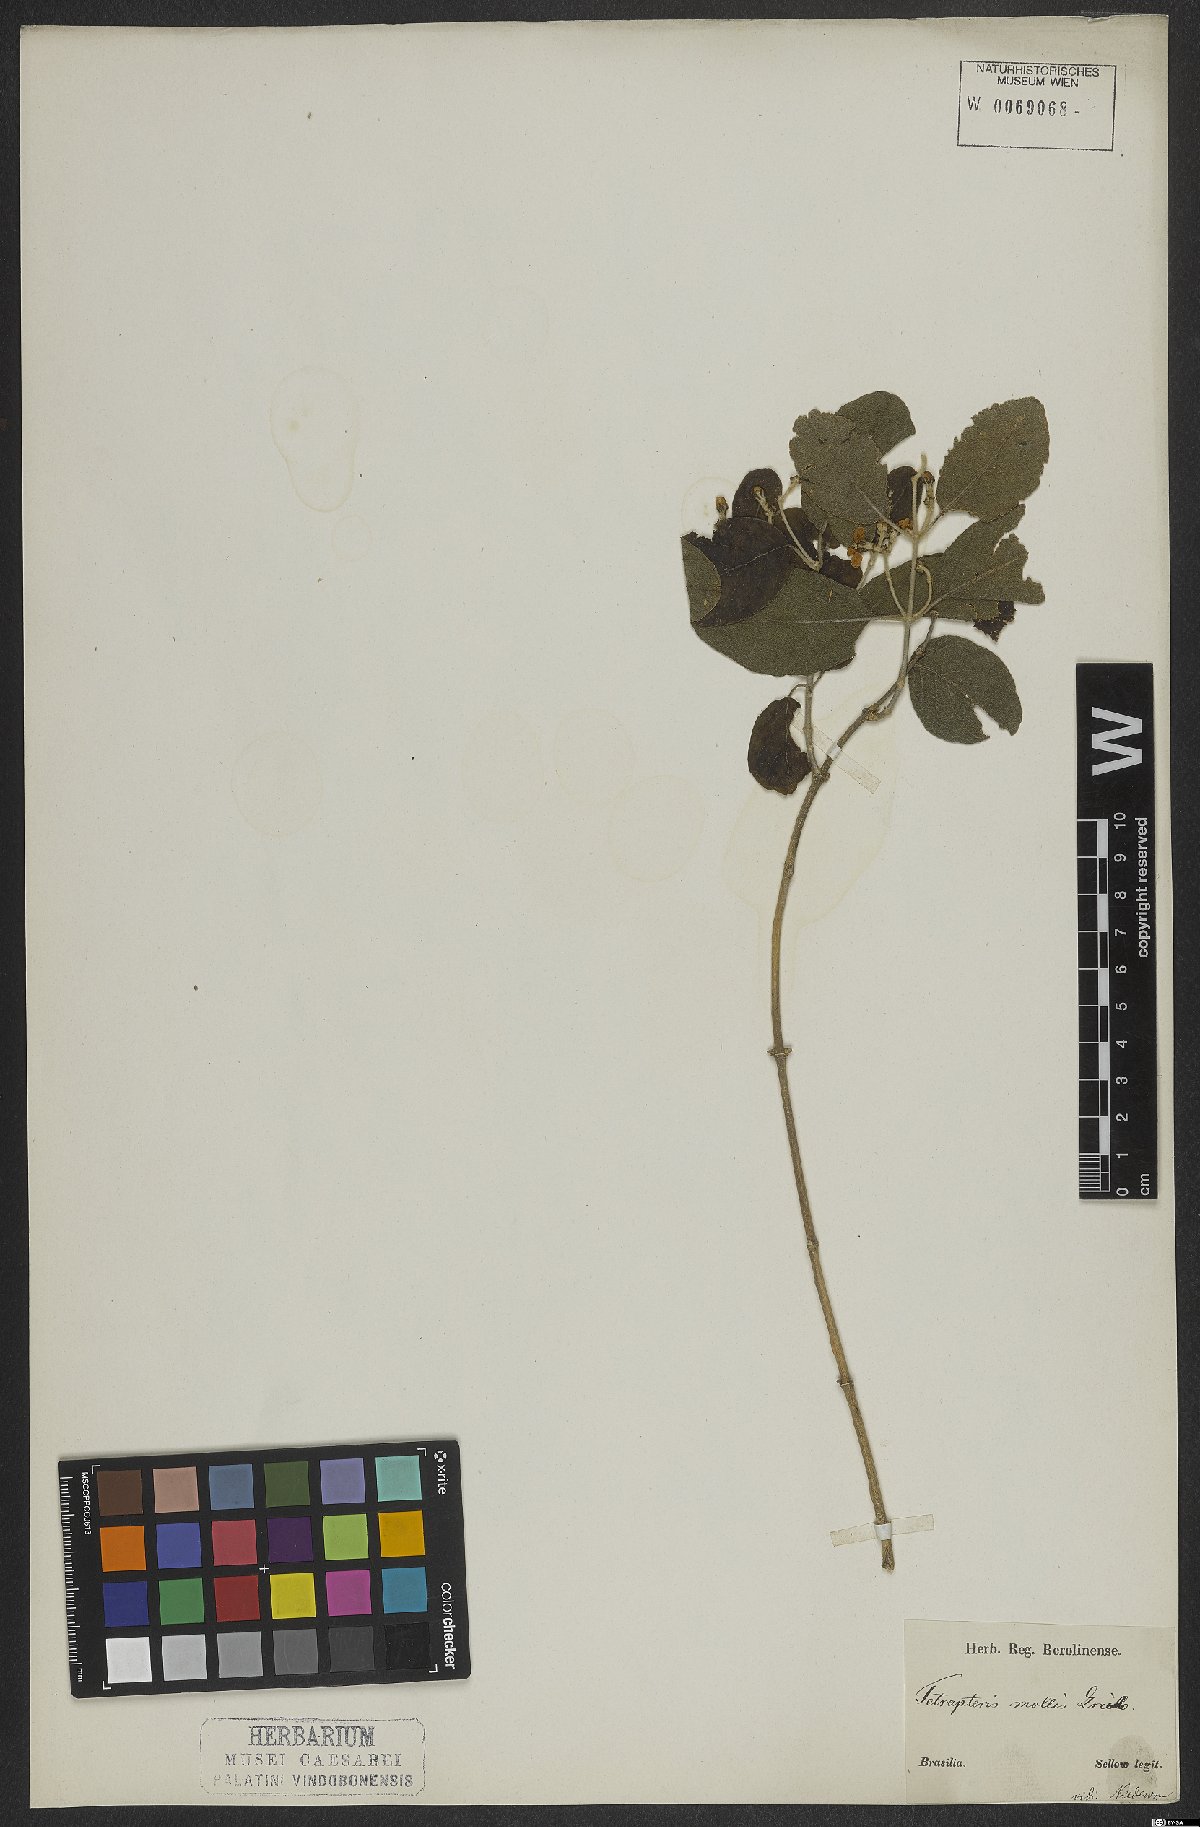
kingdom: Plantae
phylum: Tracheophyta
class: Magnoliopsida
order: Malpighiales
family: Malpighiaceae
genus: Tetrapterys
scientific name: Tetrapterys mollis
